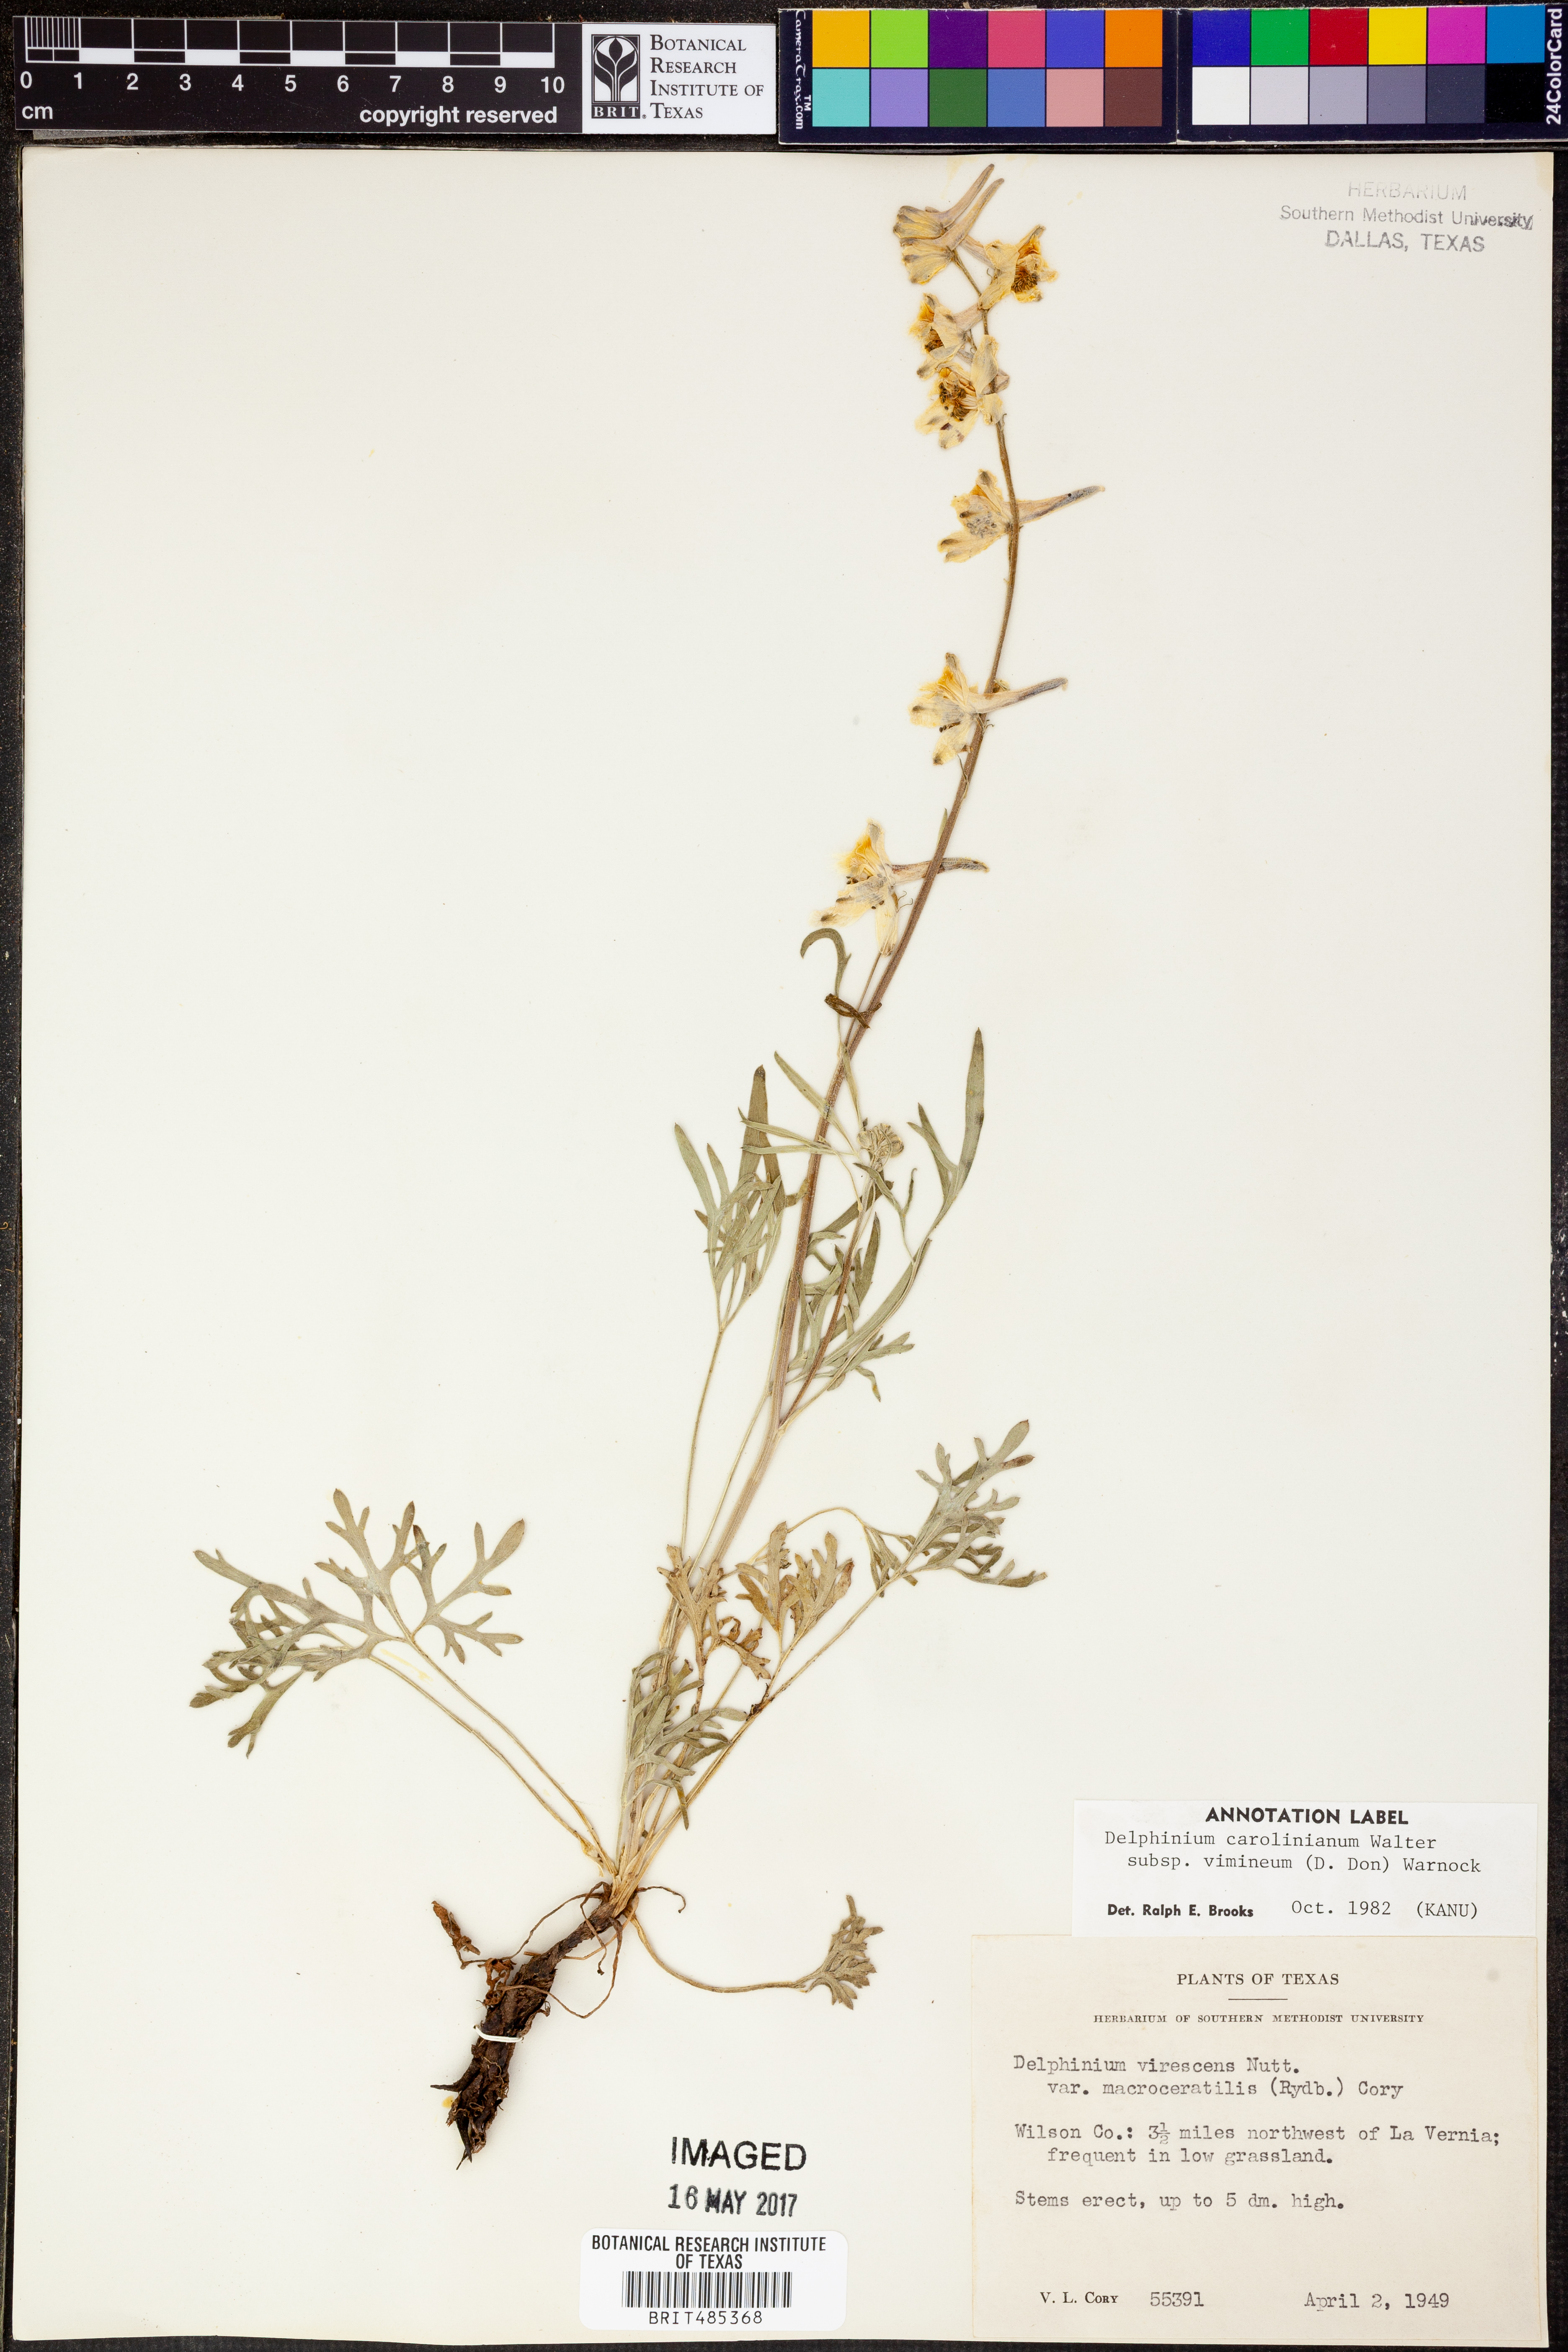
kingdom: Plantae
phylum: Tracheophyta
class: Magnoliopsida
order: Ranunculales
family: Ranunculaceae
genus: Delphinium
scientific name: Delphinium carolinianum
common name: Carolina larkspur
